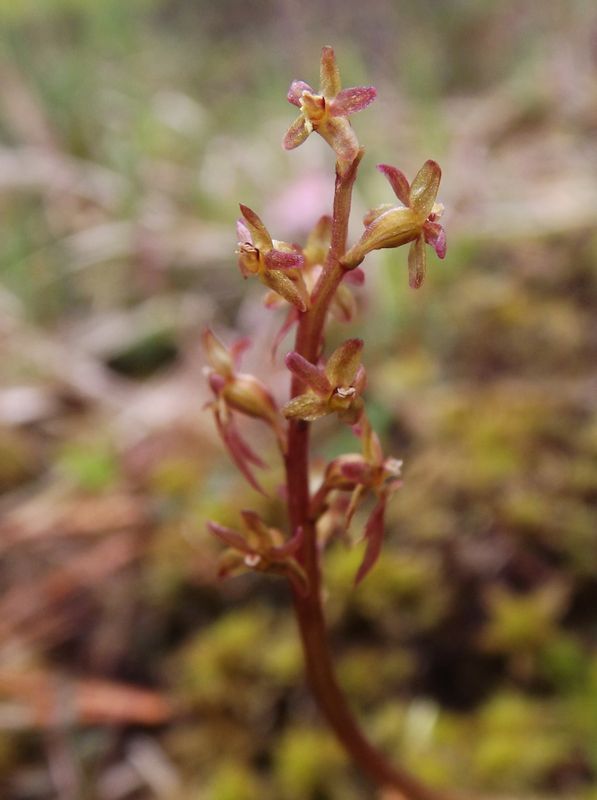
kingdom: Plantae
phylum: Tracheophyta
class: Liliopsida
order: Asparagales
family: Orchidaceae
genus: Neottia
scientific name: Neottia cordata
